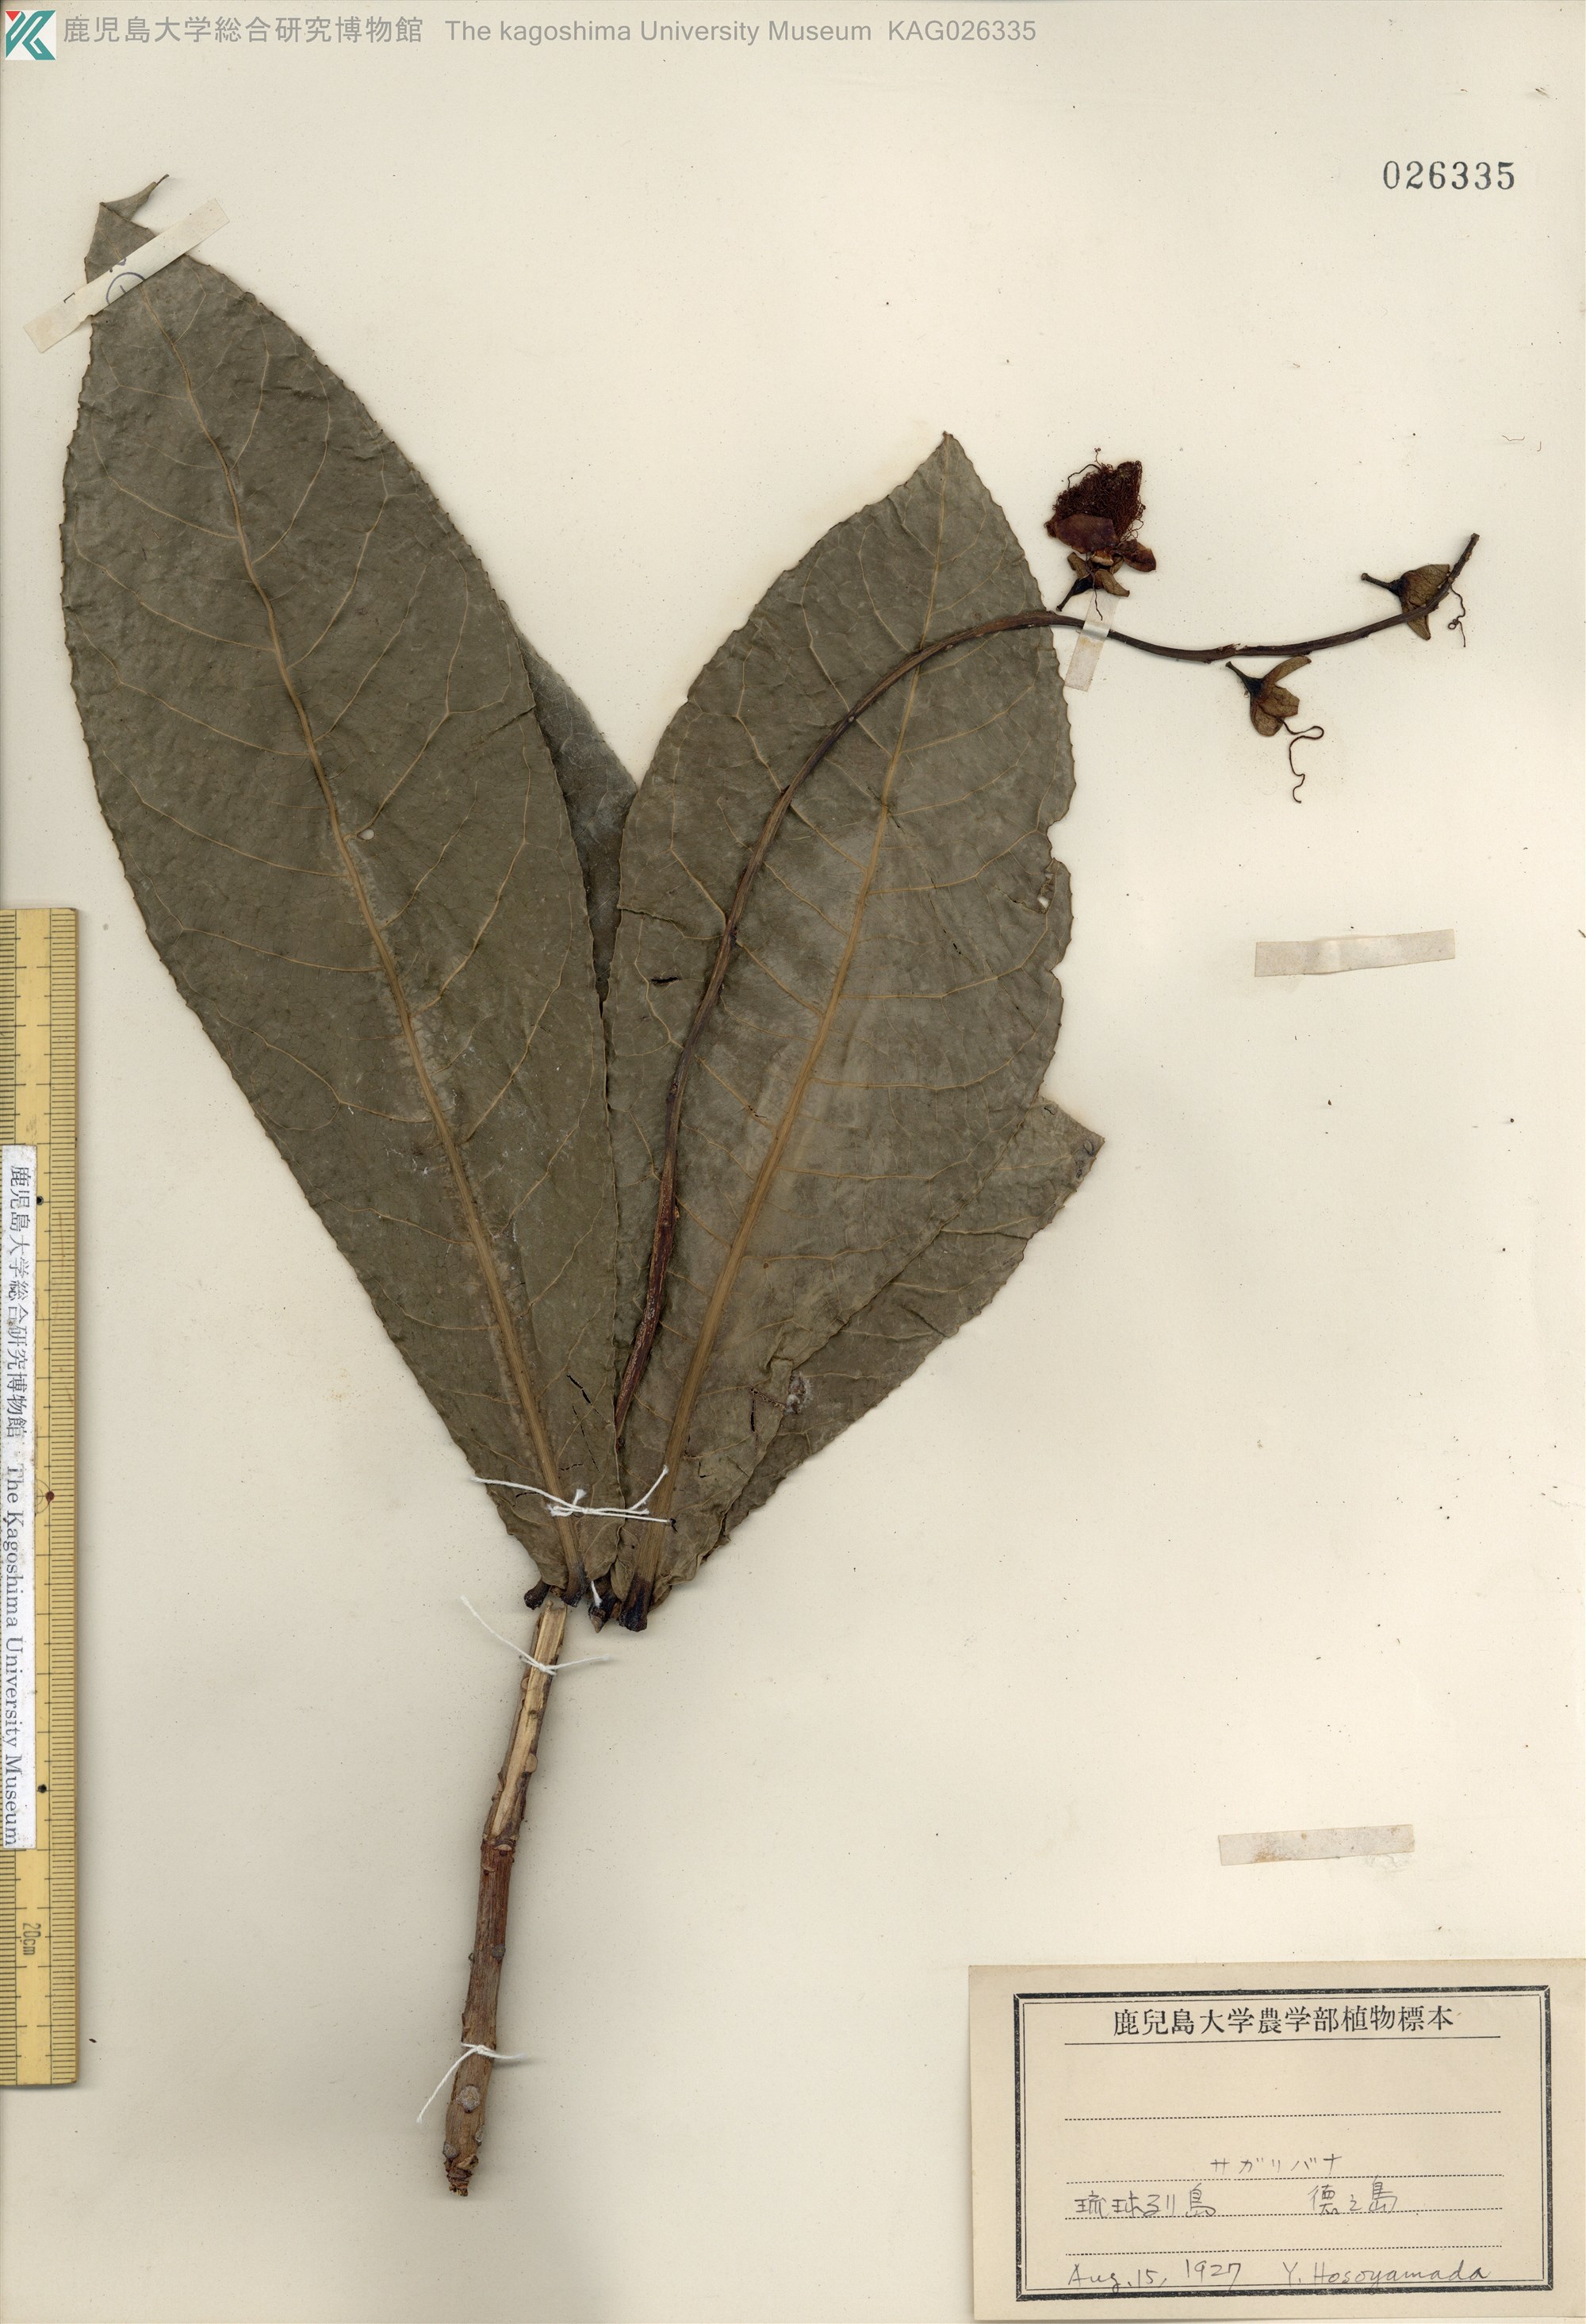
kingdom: Plantae
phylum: Tracheophyta
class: Magnoliopsida
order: Ericales
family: Lecythidaceae
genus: Barringtonia
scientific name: Barringtonia racemosa
